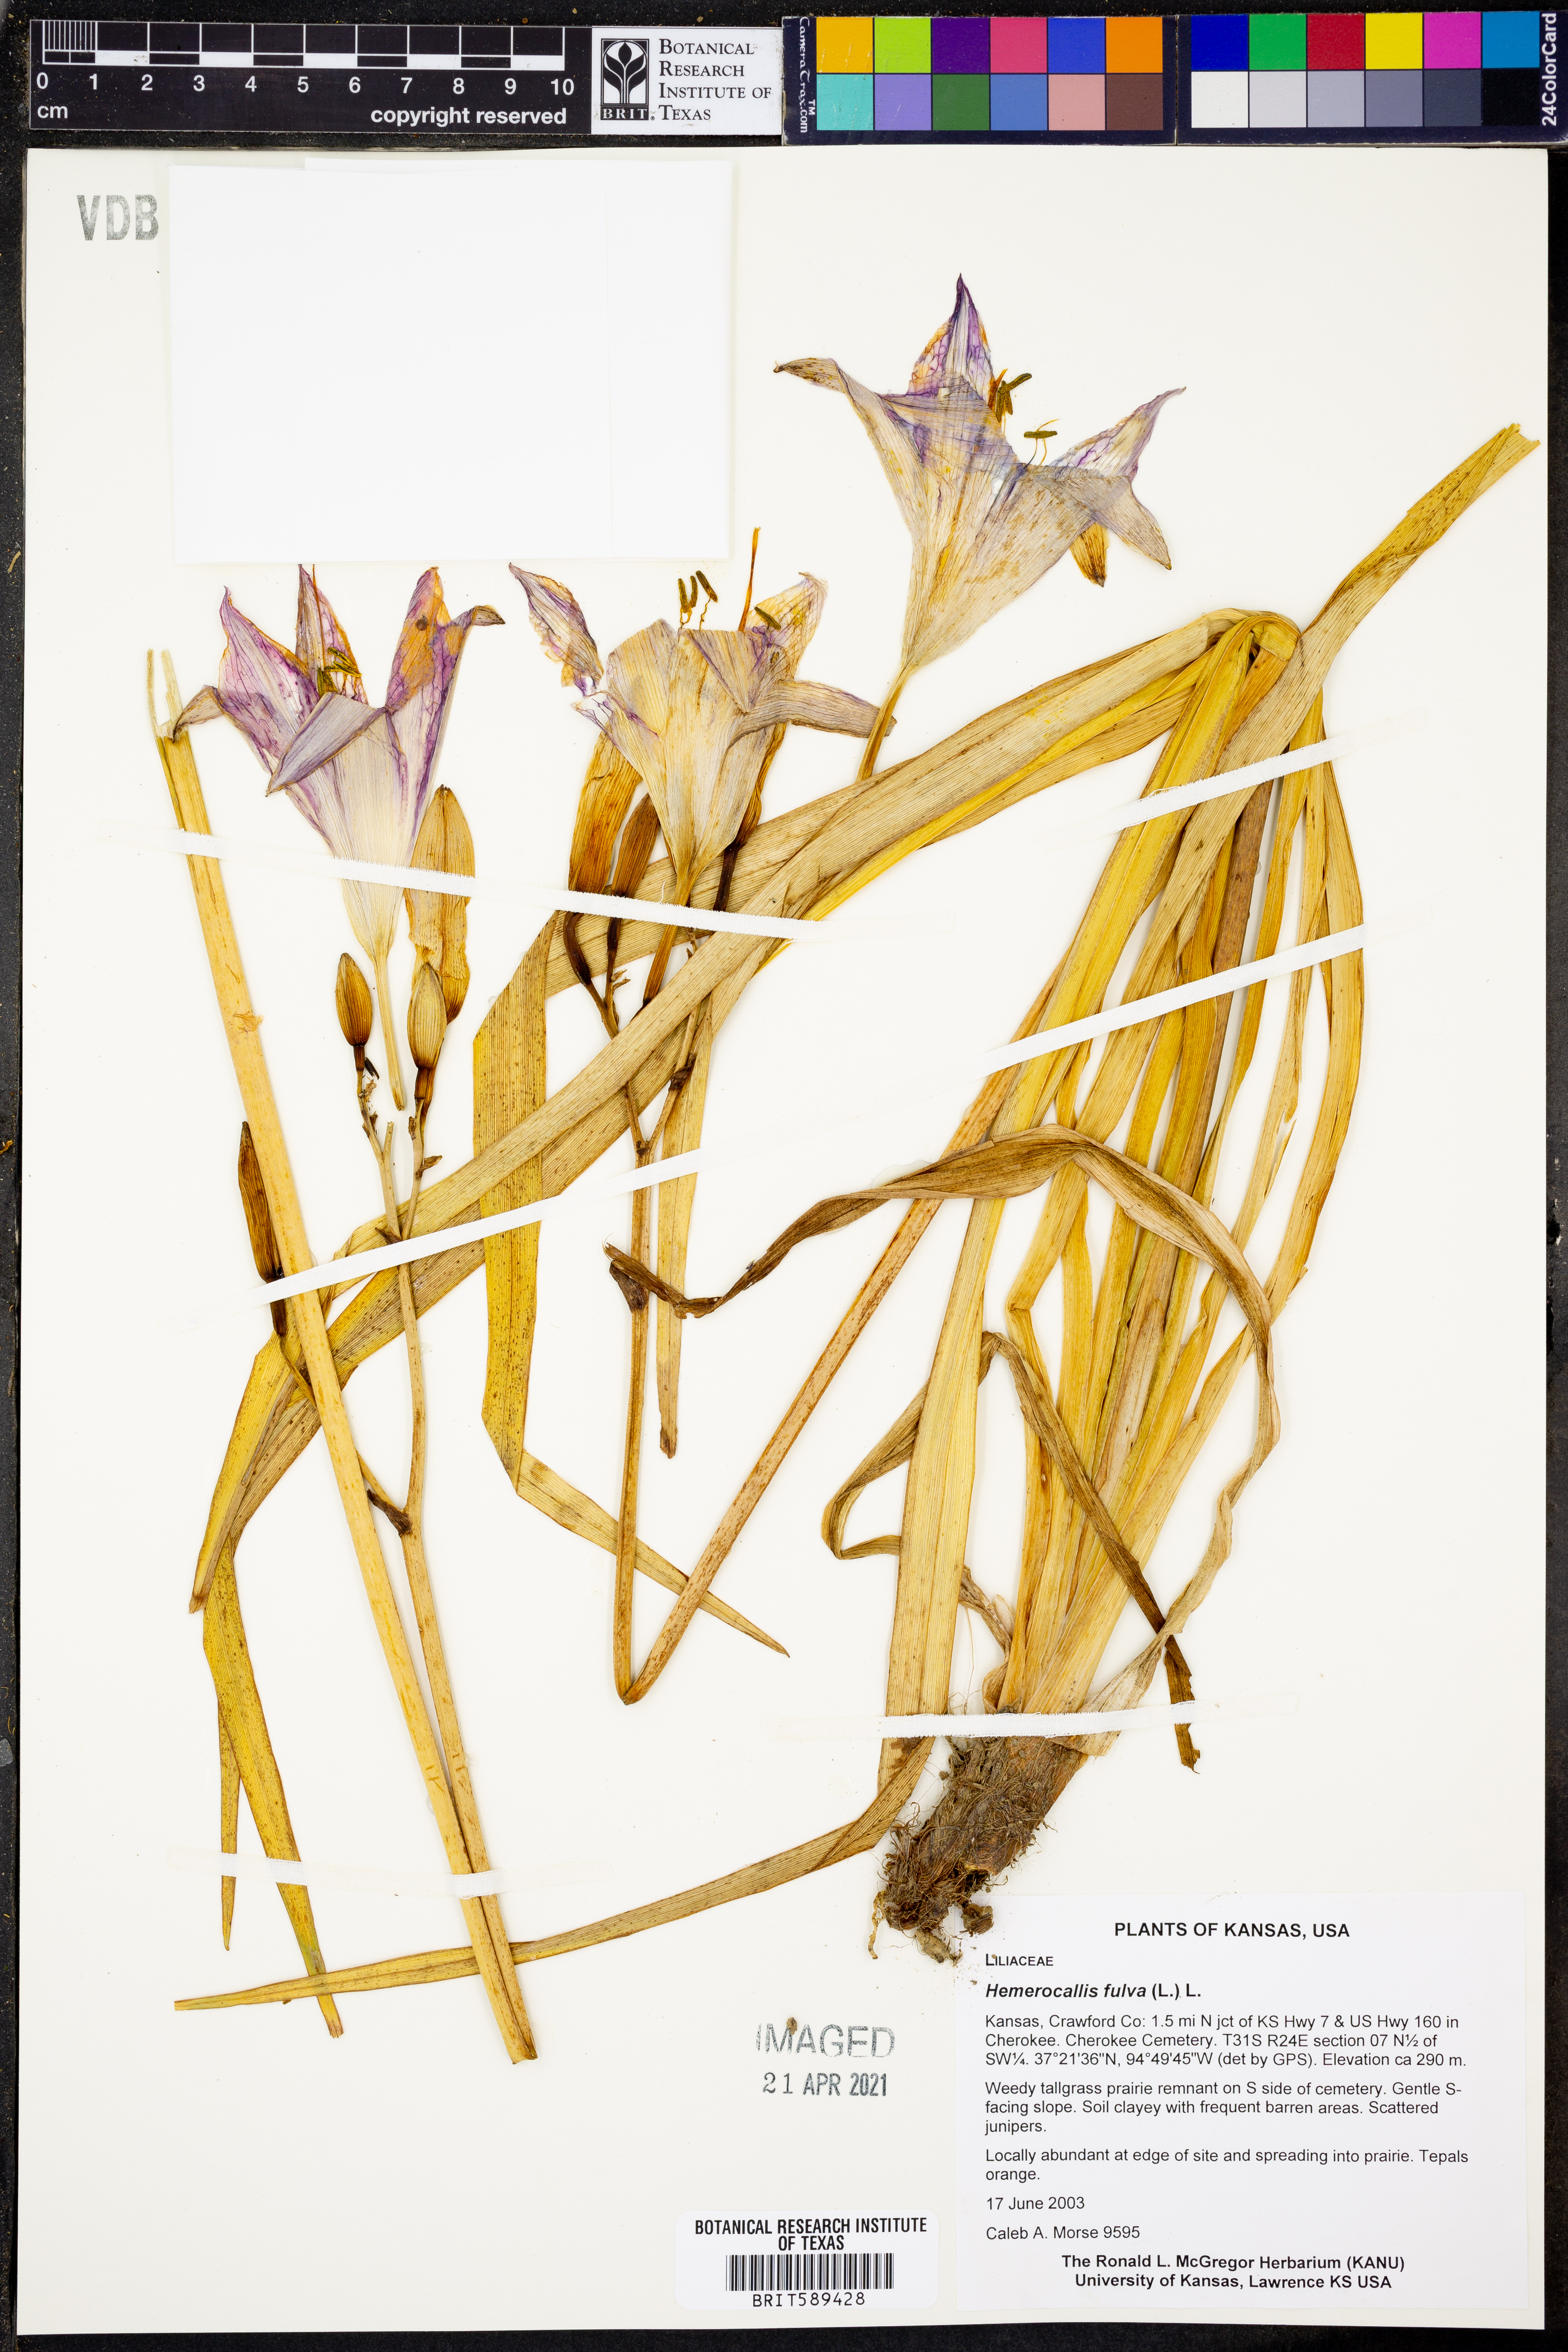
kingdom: Plantae
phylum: Tracheophyta
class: Liliopsida
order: Asparagales
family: Asphodelaceae
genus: Hemerocallis
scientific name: Hemerocallis fulva
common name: Orange day-lily
